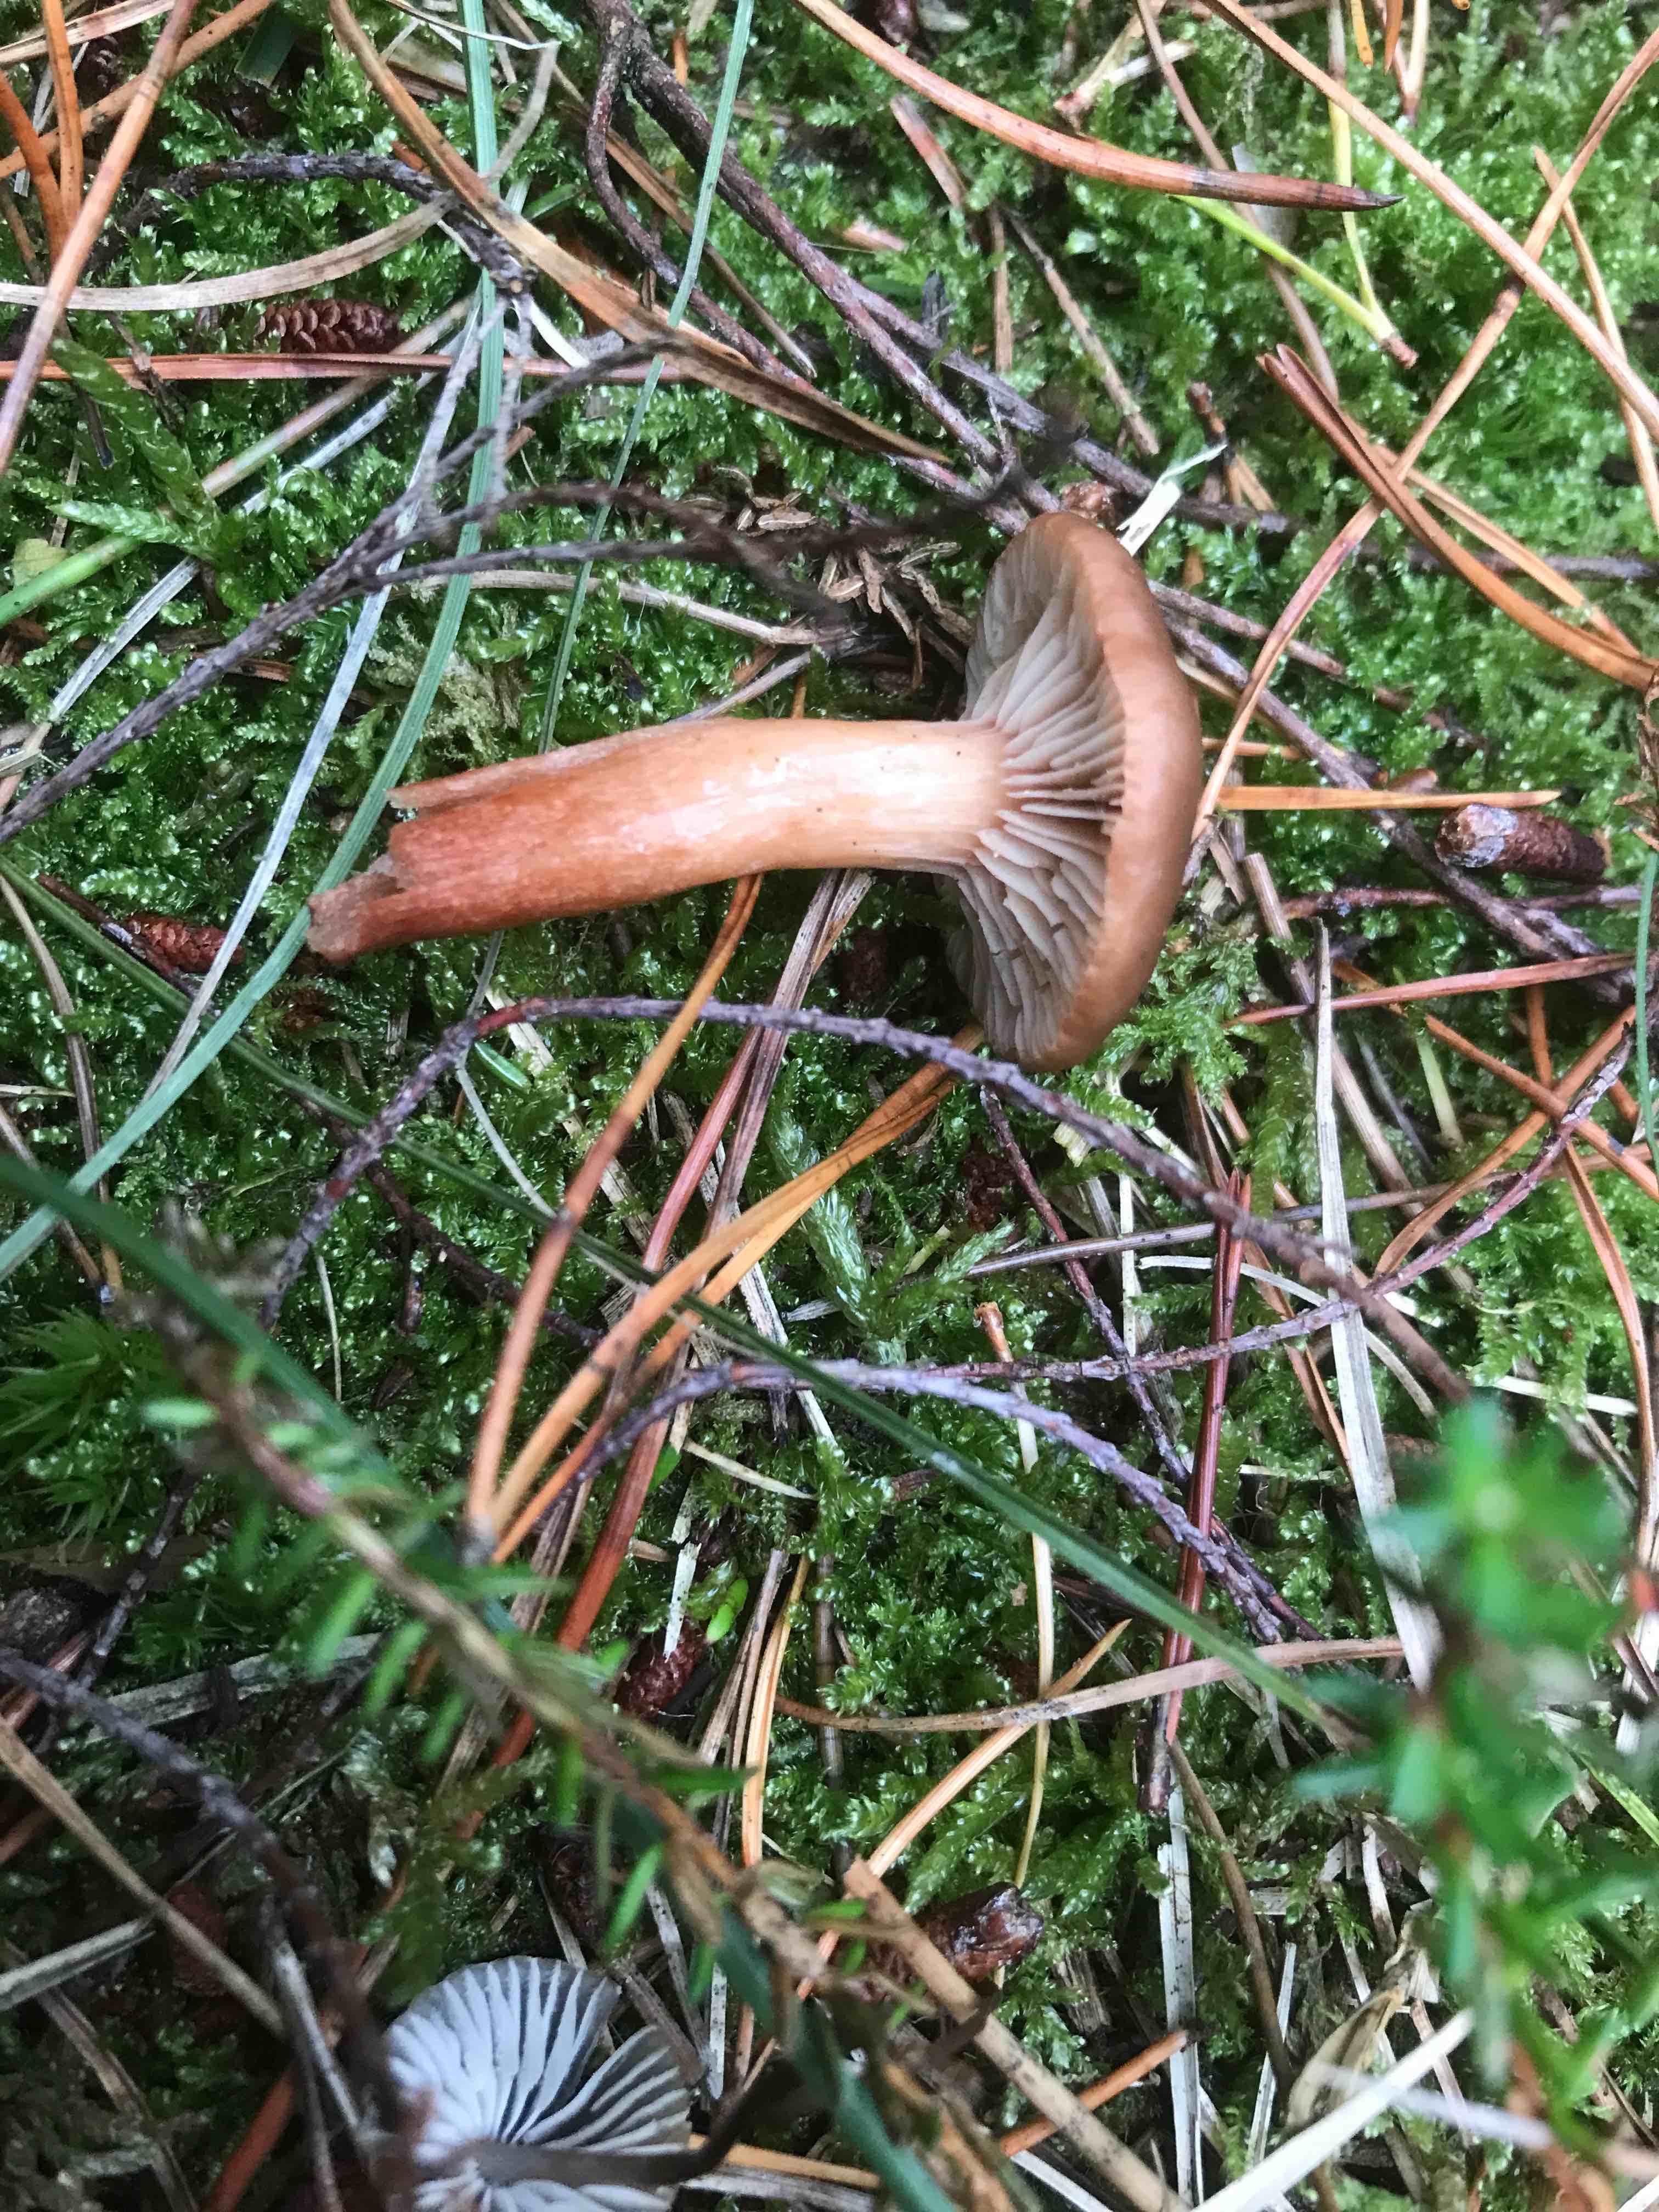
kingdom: Fungi
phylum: Basidiomycota
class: Agaricomycetes
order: Russulales
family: Russulaceae
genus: Lactarius
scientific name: Lactarius hepaticus
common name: leverbrun mælkehat
